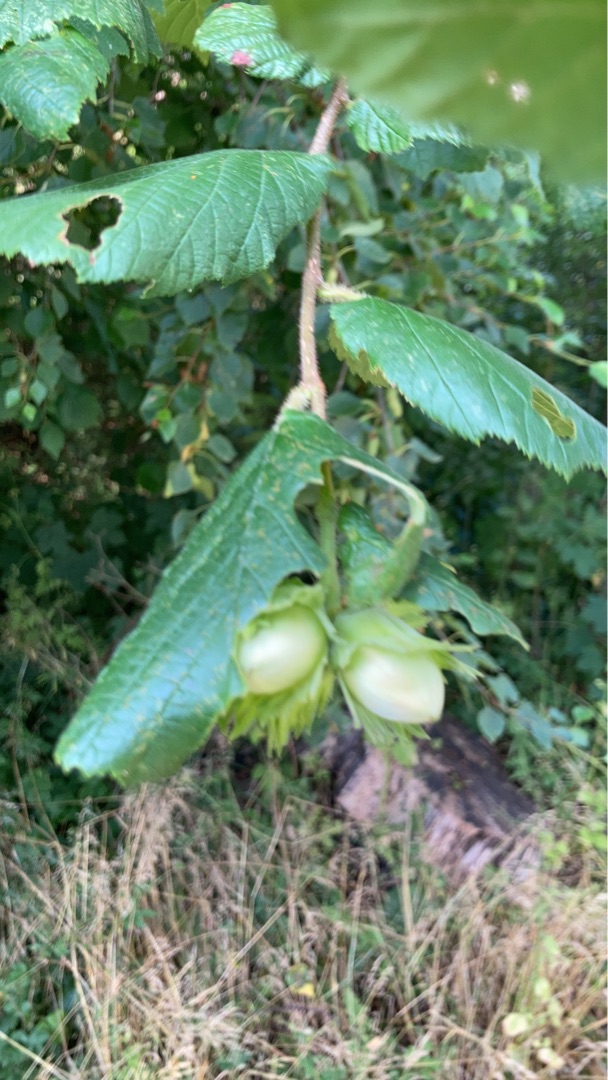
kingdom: Plantae
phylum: Tracheophyta
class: Magnoliopsida
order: Fagales
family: Betulaceae
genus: Corylus
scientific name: Corylus avellana
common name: Hassel
